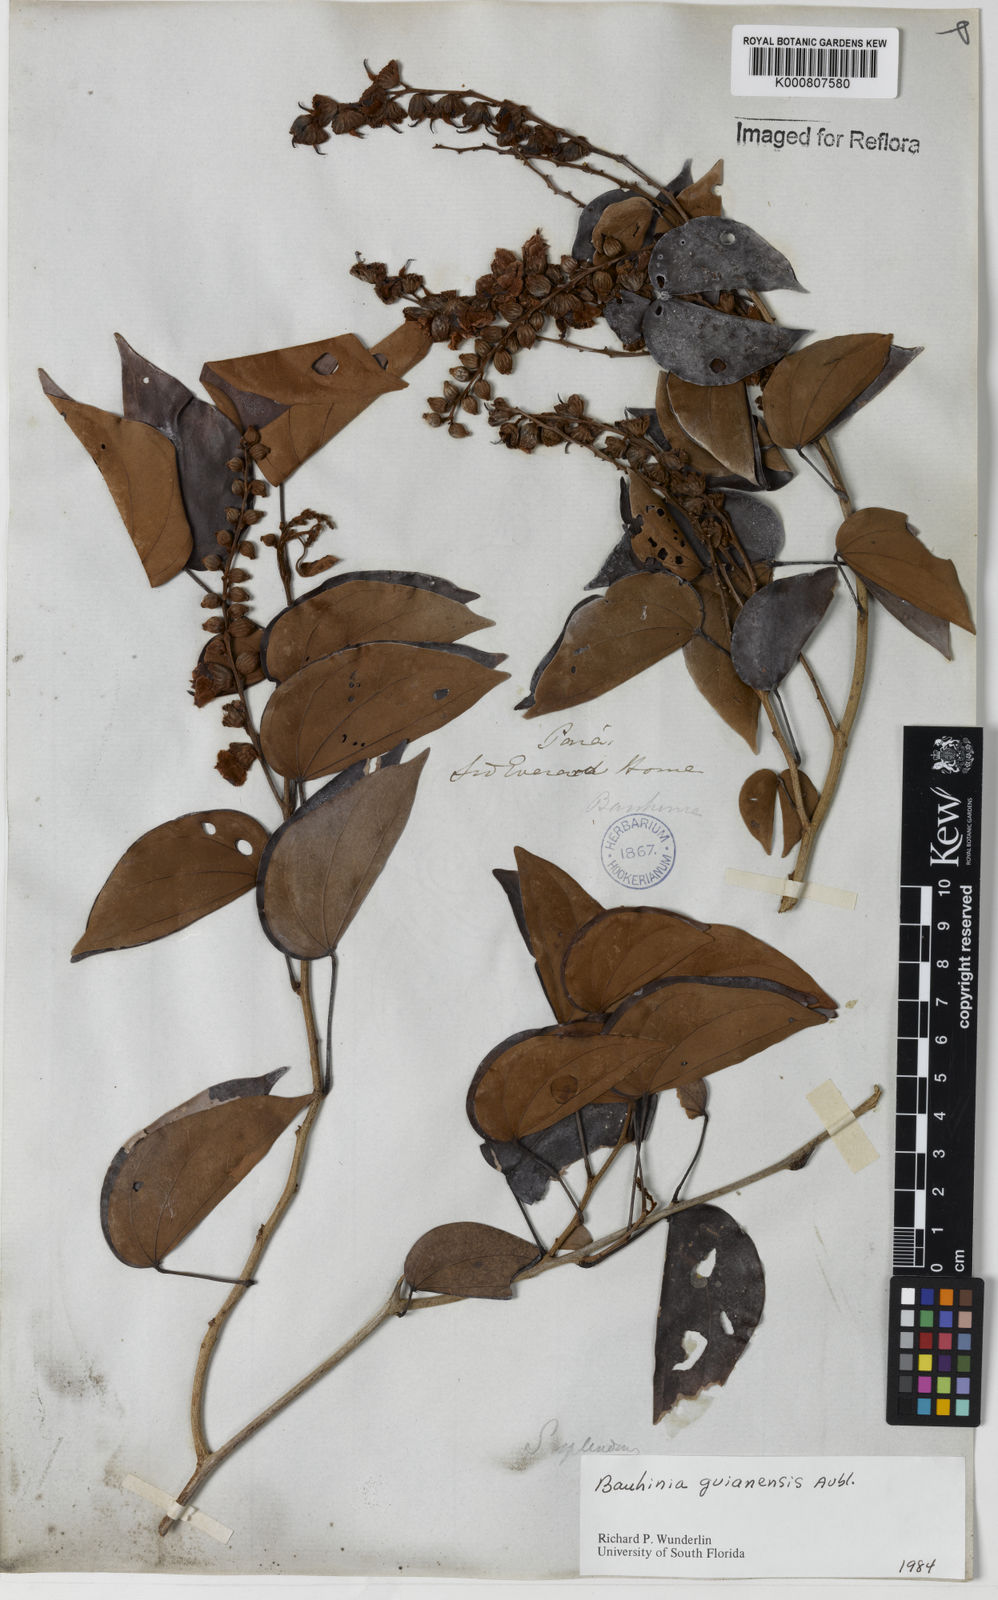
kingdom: Plantae
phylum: Tracheophyta
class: Magnoliopsida
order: Fabales
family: Fabaceae
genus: Schnella
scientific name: Schnella guianensis
